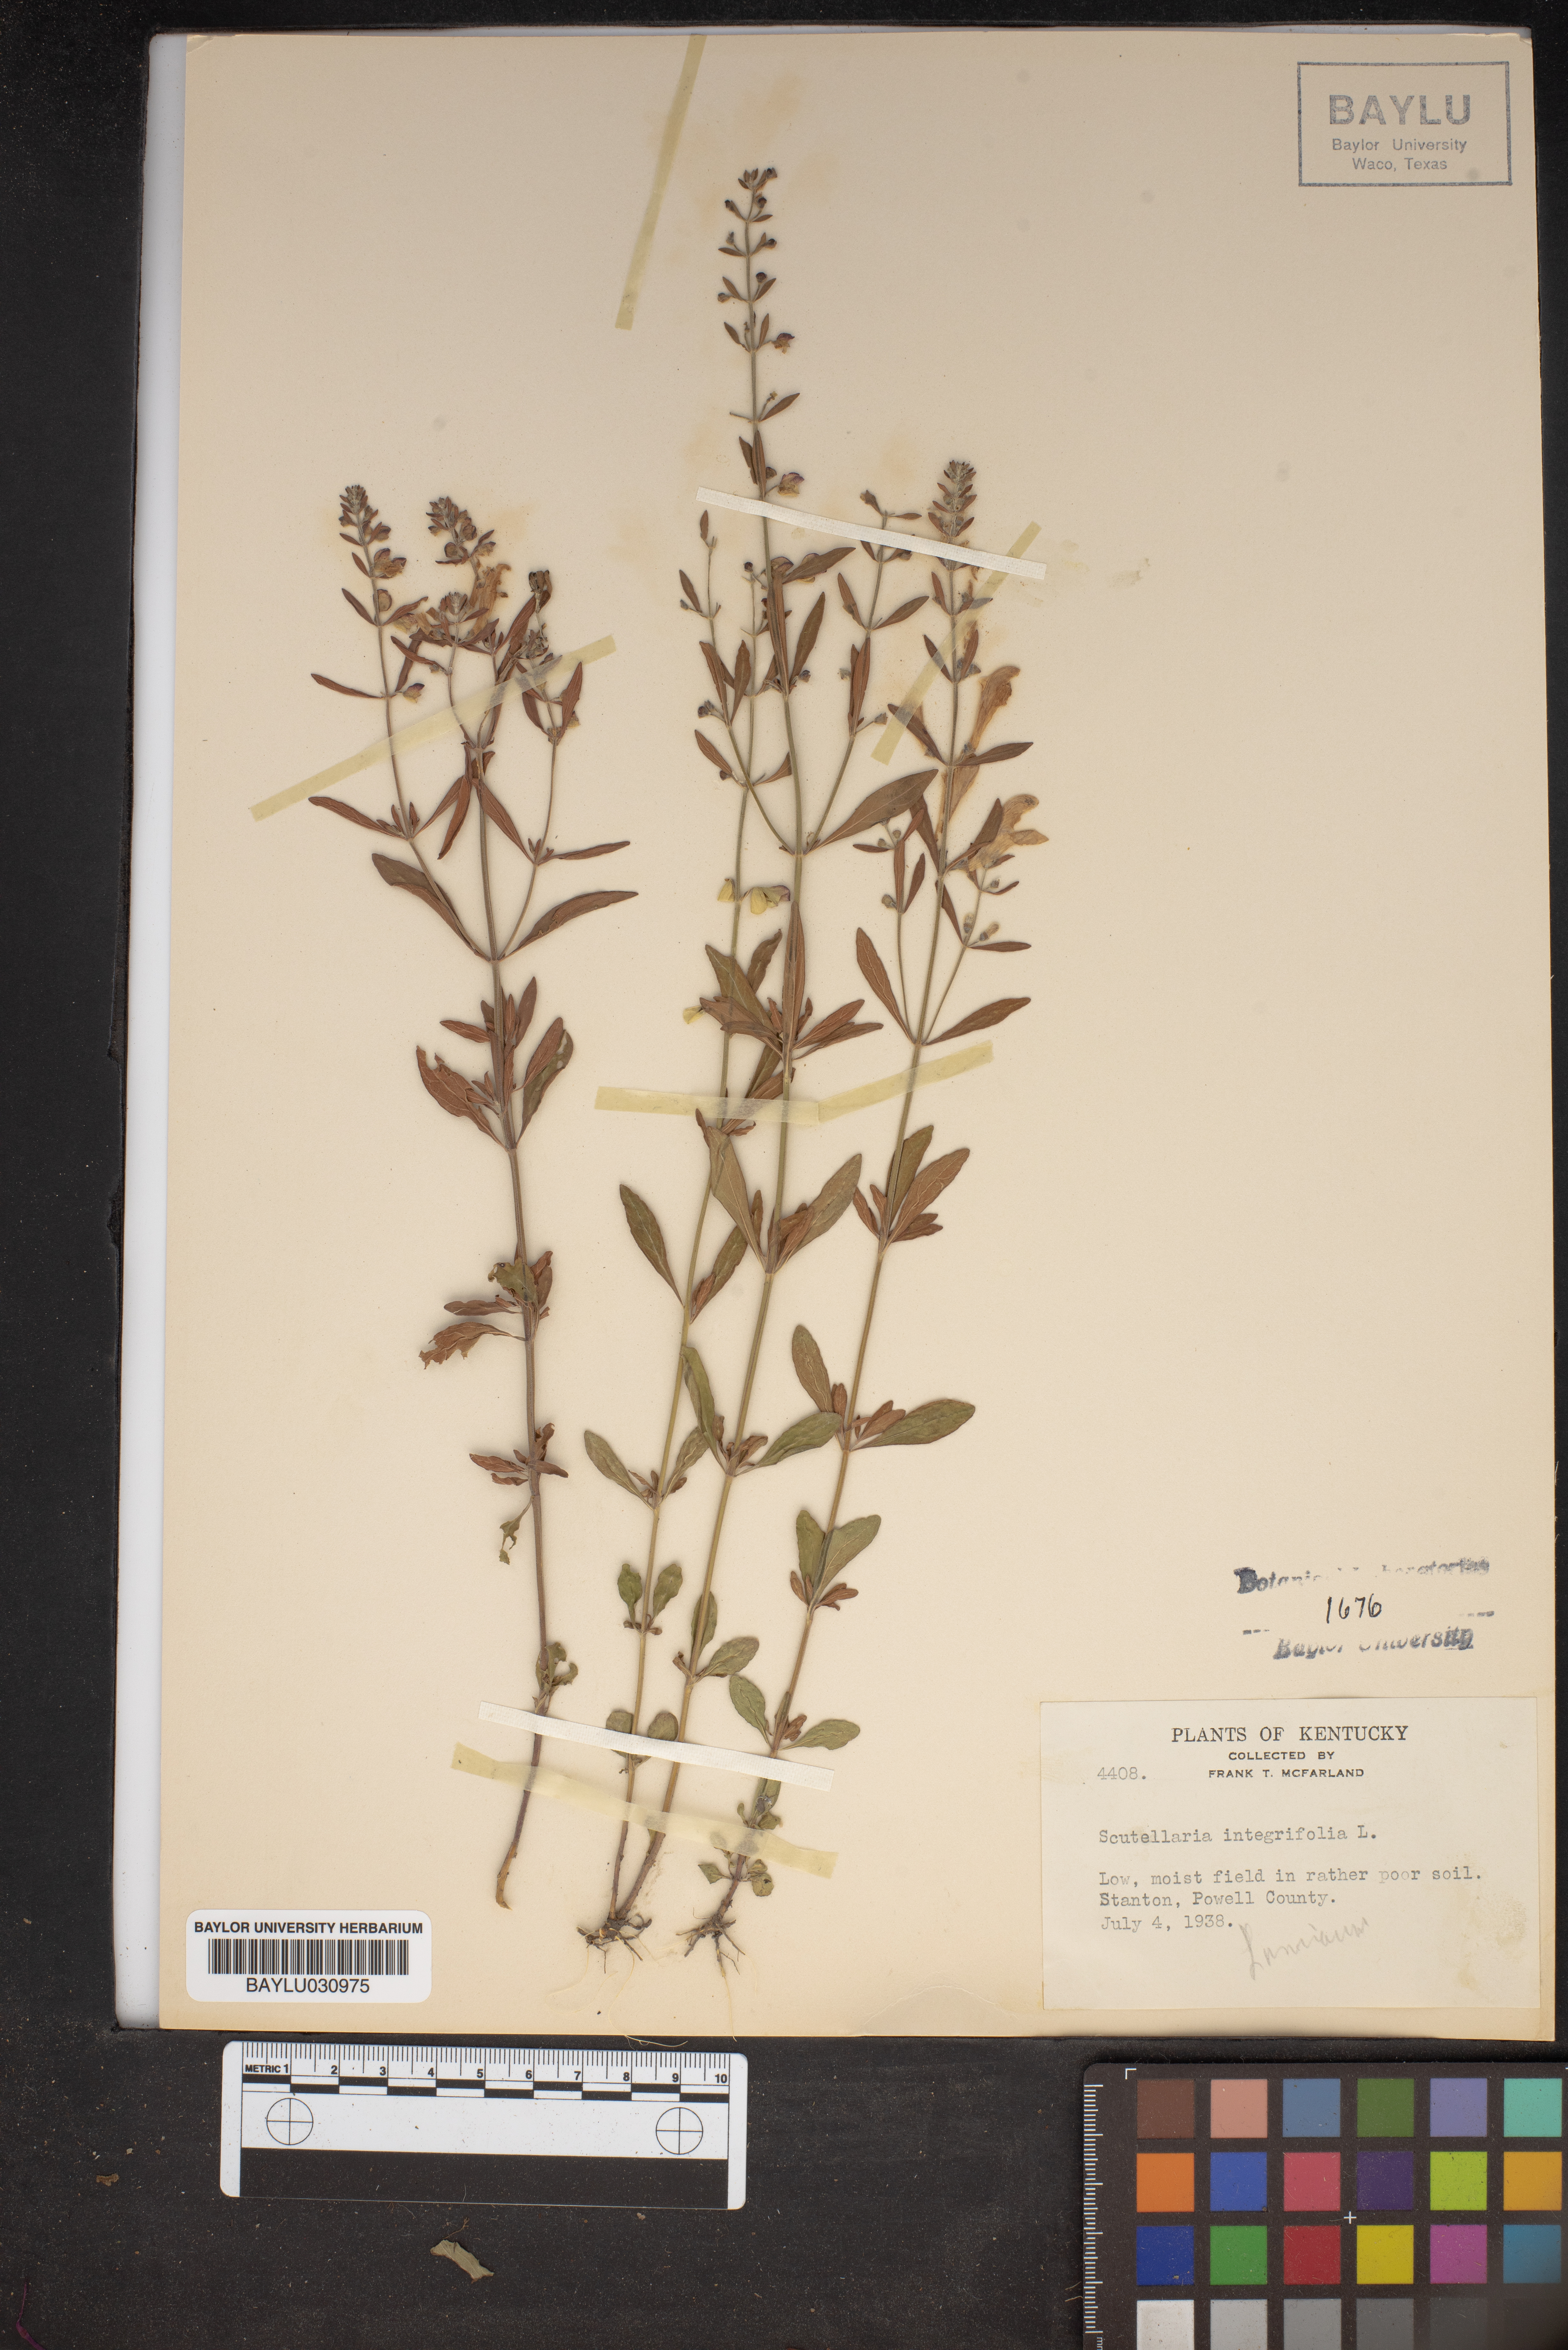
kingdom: Plantae
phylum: Tracheophyta
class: Magnoliopsida
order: Lamiales
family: Lamiaceae
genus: Scutellaria
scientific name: Scutellaria integrifolia
